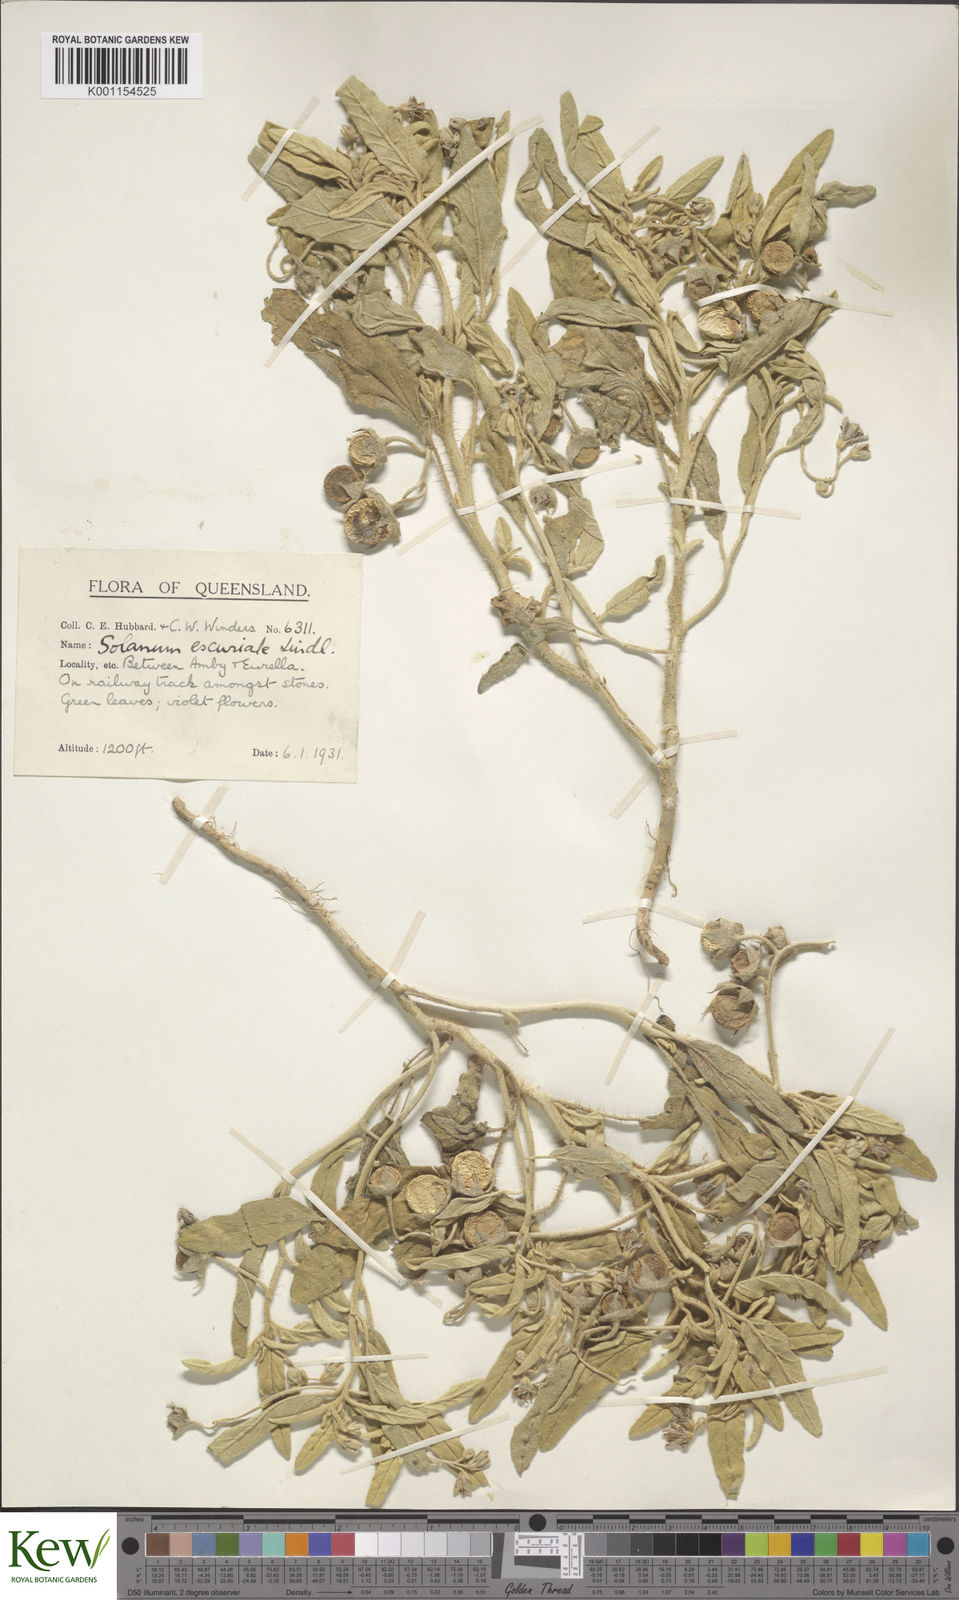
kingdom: Plantae
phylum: Tracheophyta
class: Magnoliopsida
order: Solanales
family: Solanaceae
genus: Solanum
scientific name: Solanum esuriale
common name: Wild tomato
